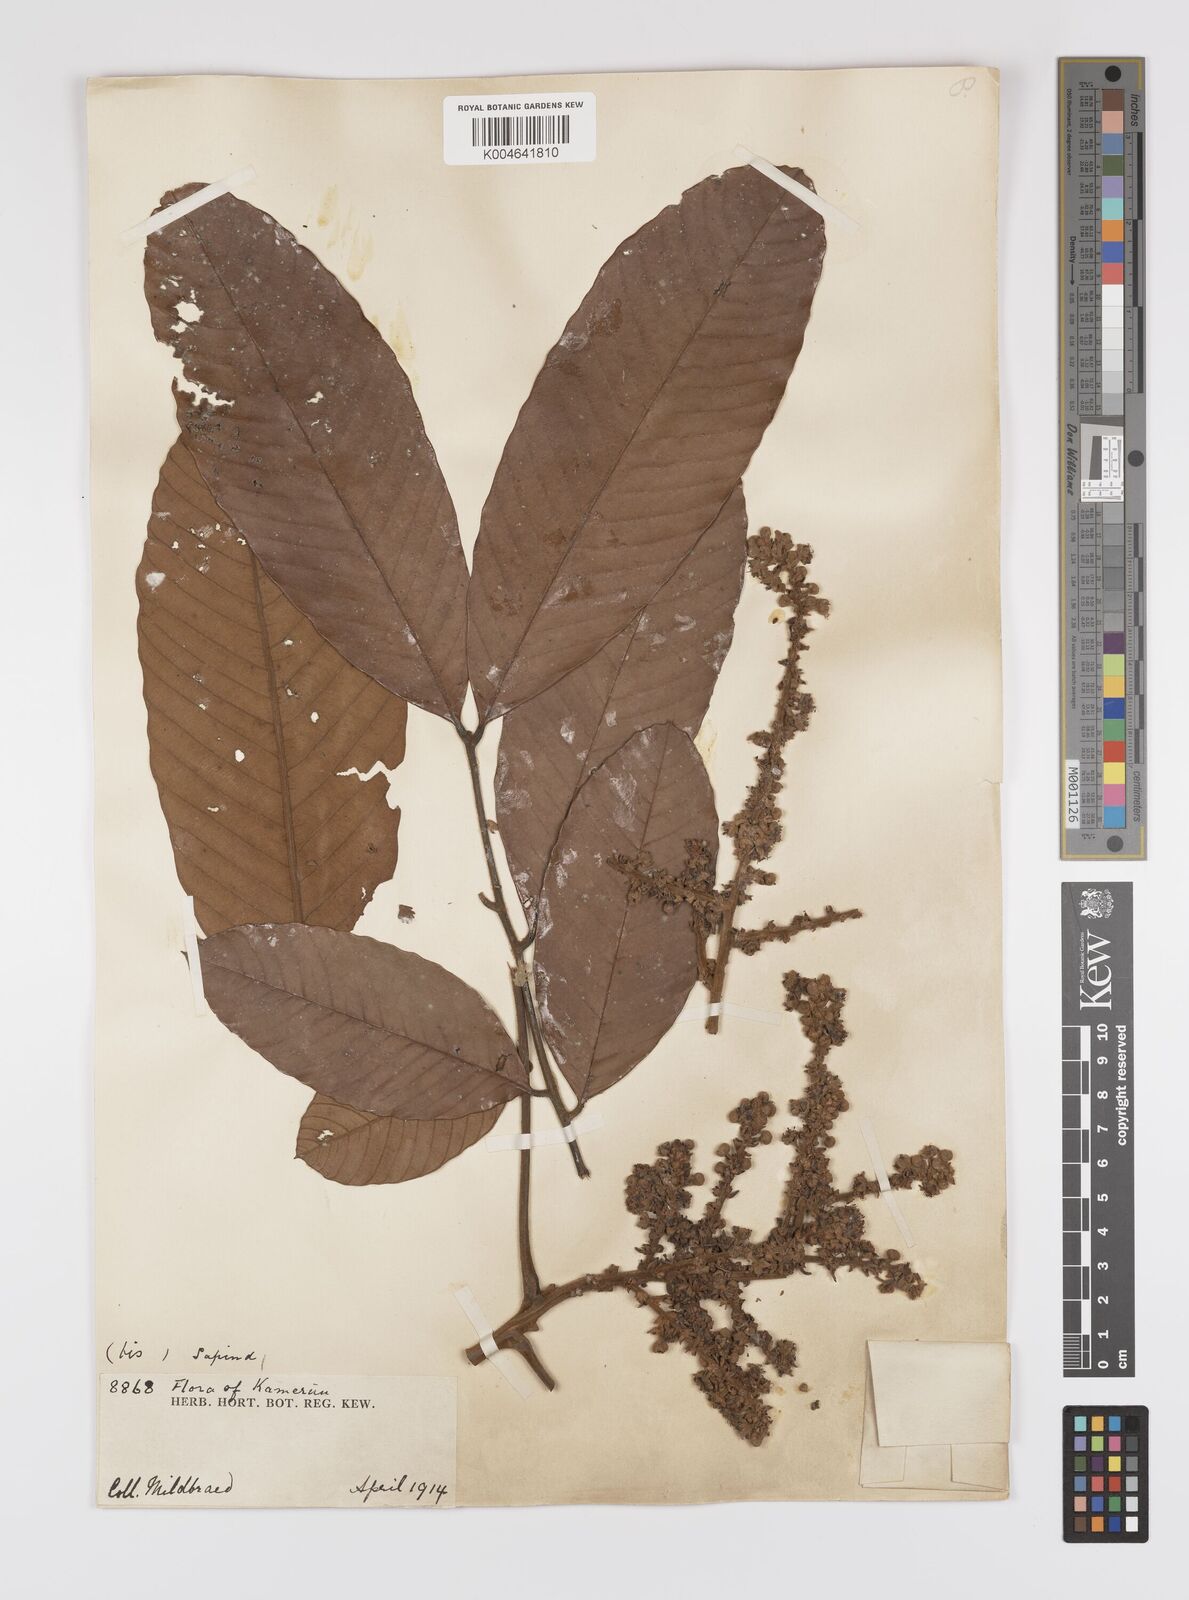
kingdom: Plantae
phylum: Tracheophyta
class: Magnoliopsida
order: Sapindales
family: Sapindaceae
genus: Lychnodiscus
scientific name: Lychnodiscus
